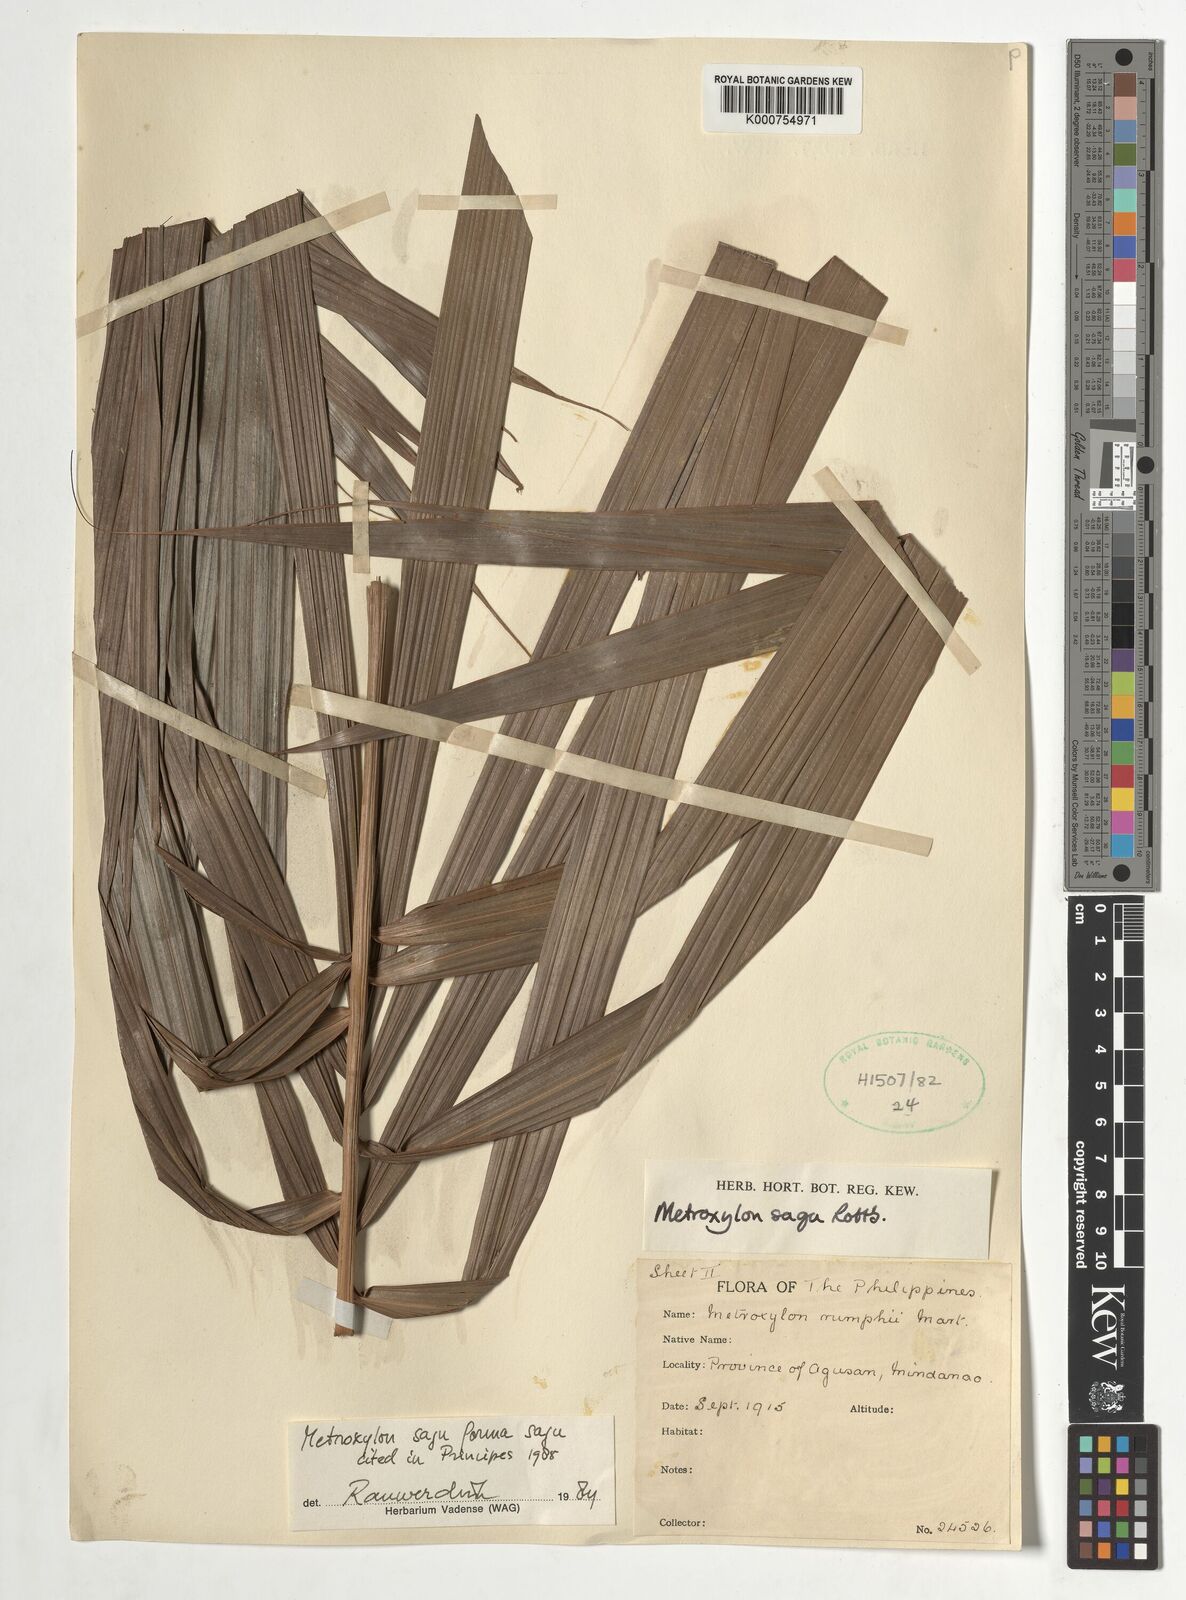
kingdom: Plantae
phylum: Tracheophyta
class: Liliopsida
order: Arecales
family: Arecaceae
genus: Metroxylon
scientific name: Metroxylon sagu
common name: Sago palm
